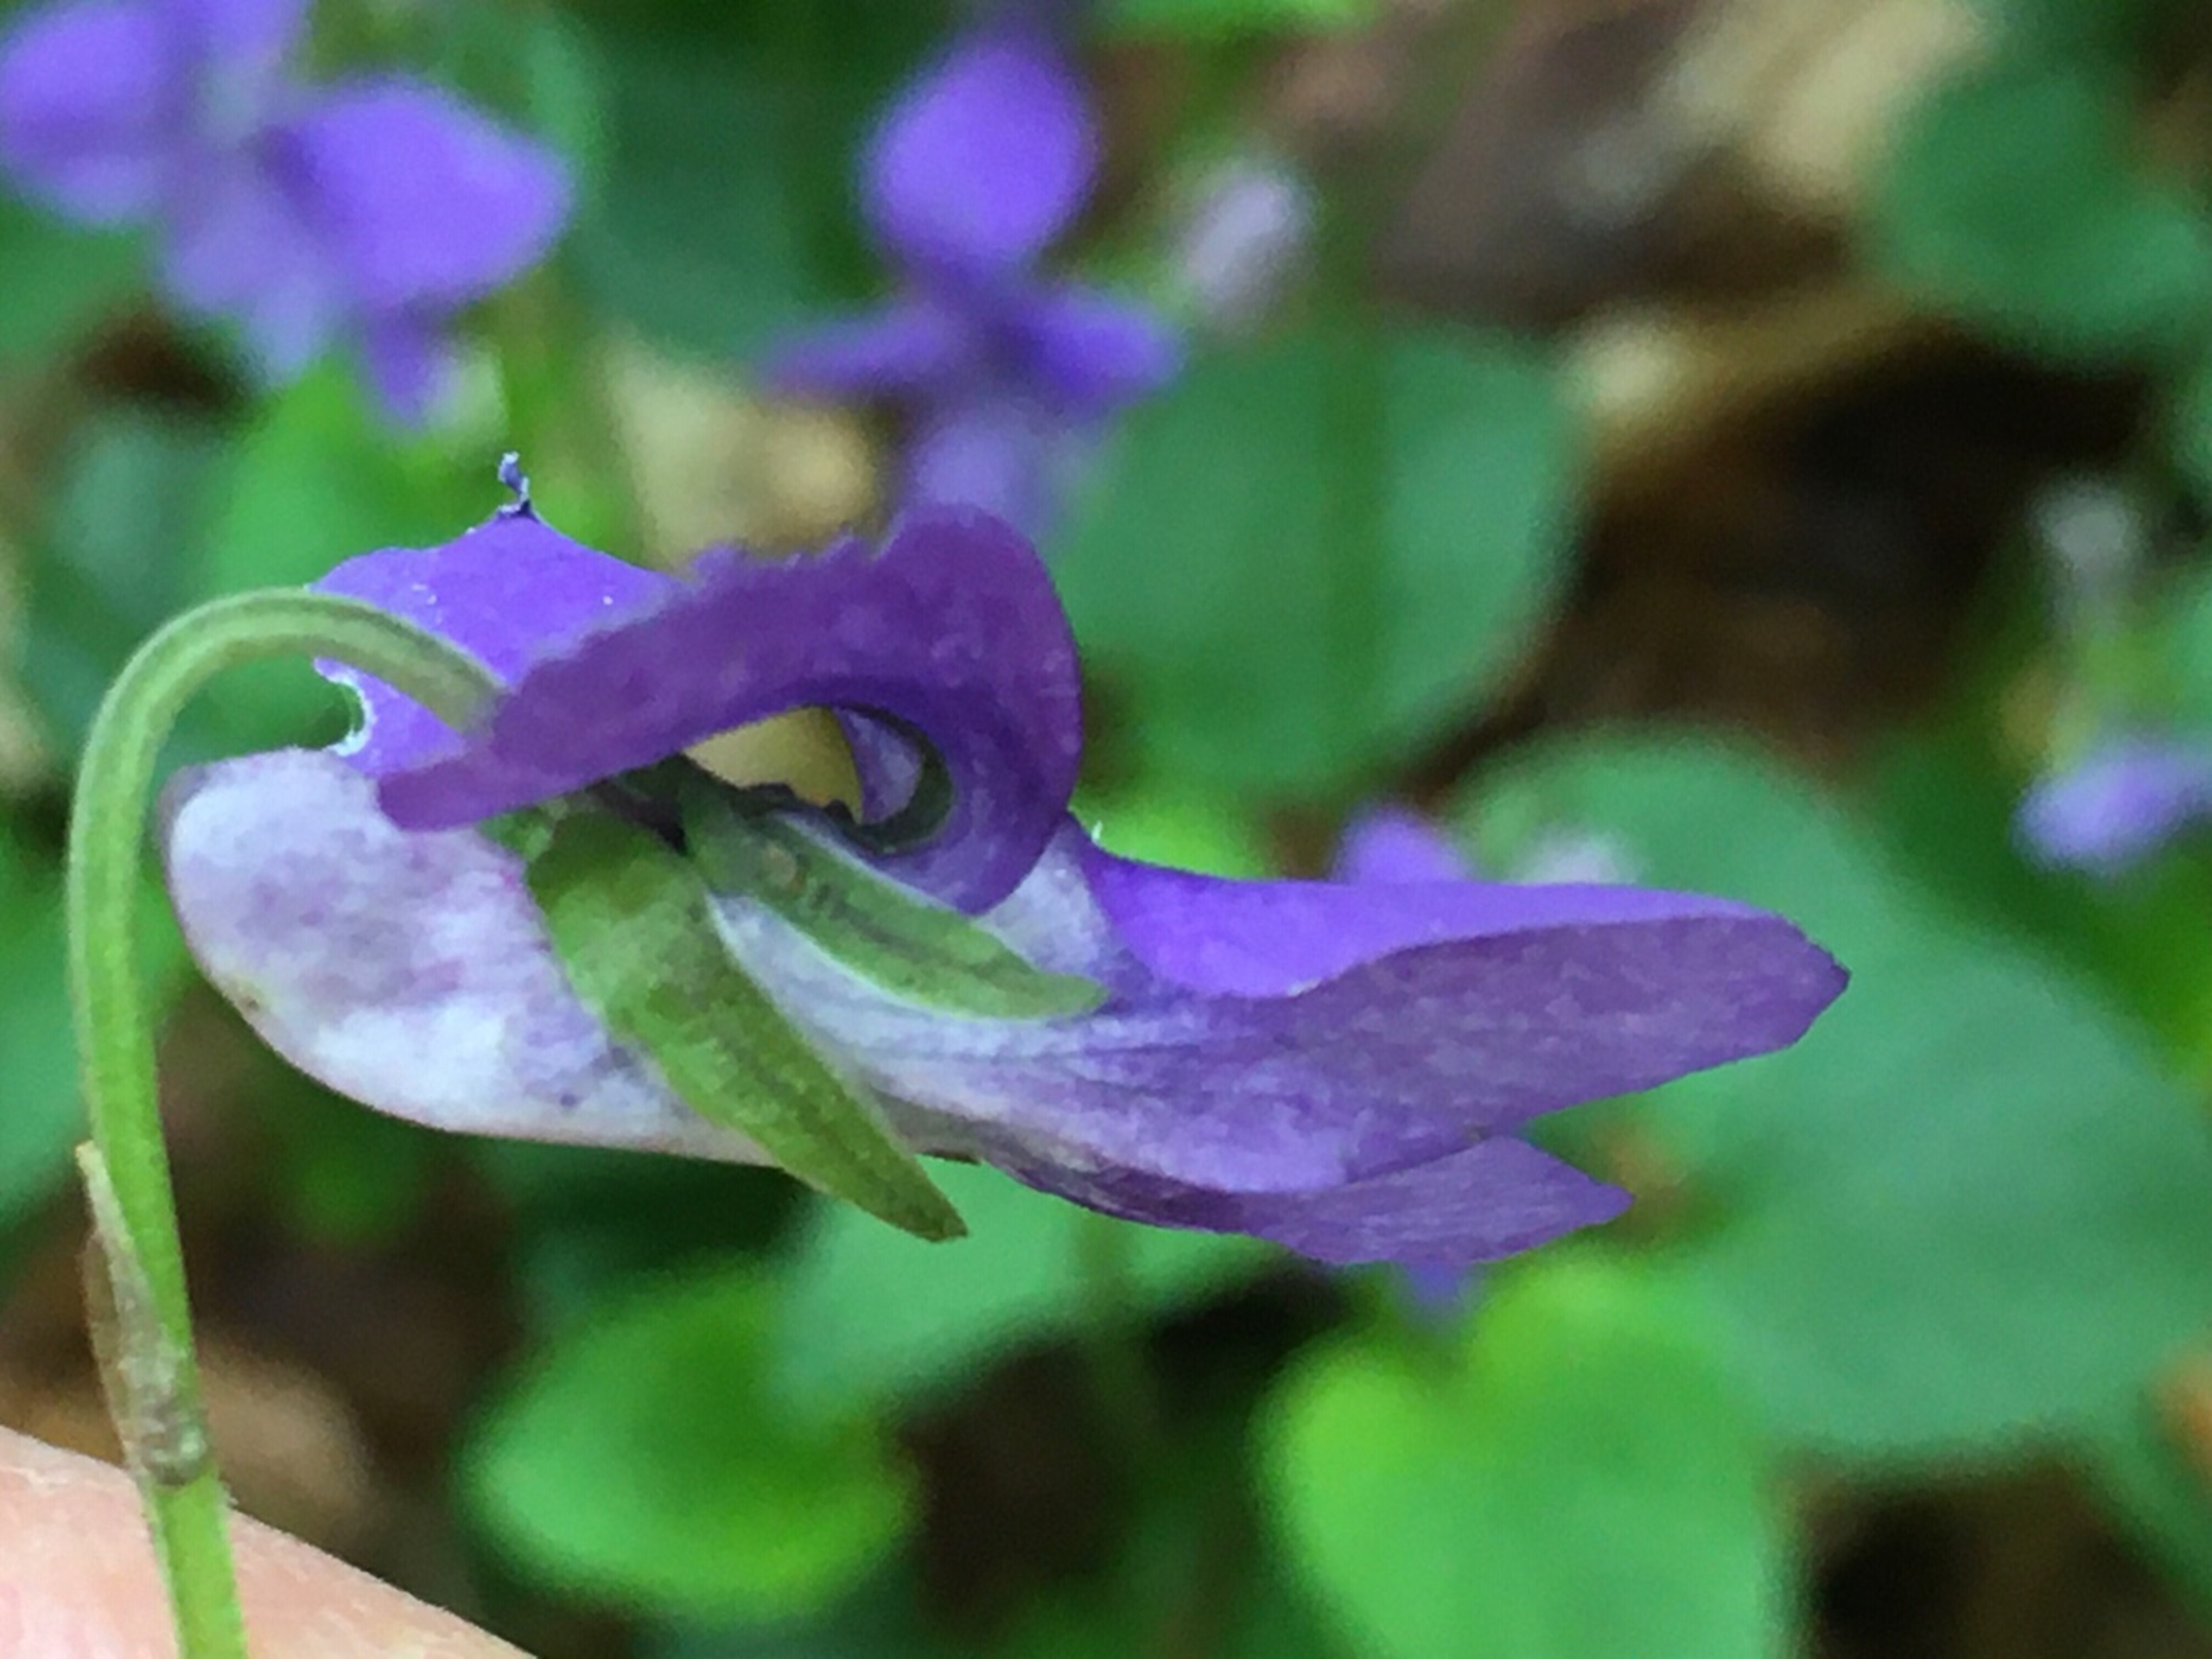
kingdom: Plantae
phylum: Tracheophyta
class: Magnoliopsida
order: Malpighiales
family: Violaceae
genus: Viola
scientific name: Viola riviniana
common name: Krat-viol
